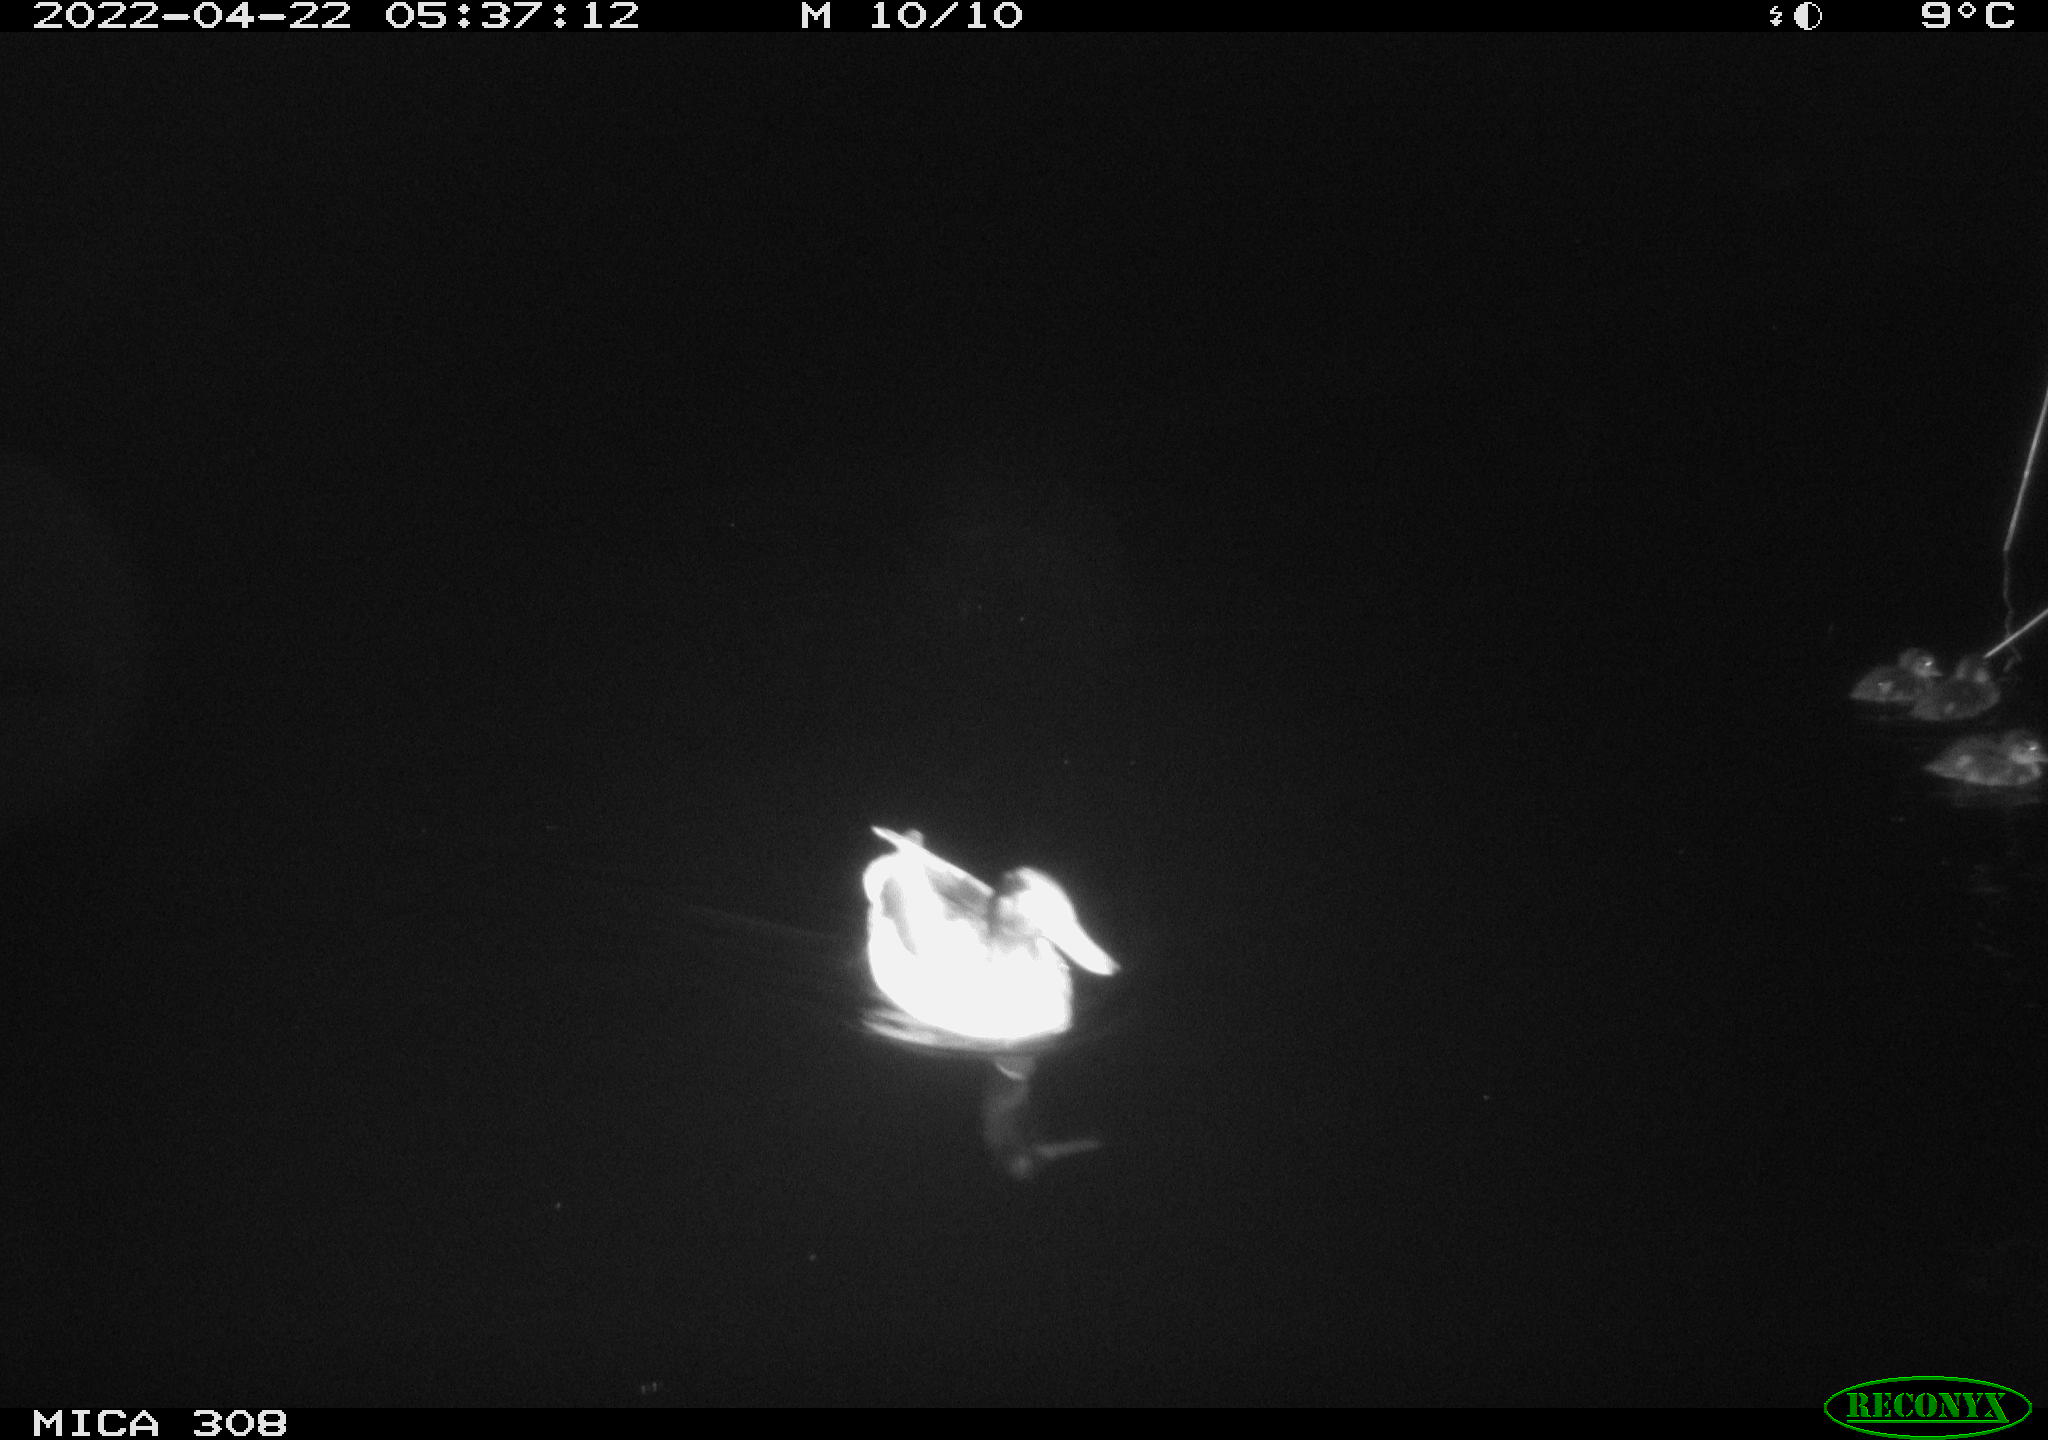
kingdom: Animalia
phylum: Chordata
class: Aves
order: Anseriformes
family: Anatidae
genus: Anas
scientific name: Anas platyrhynchos
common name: Mallard
